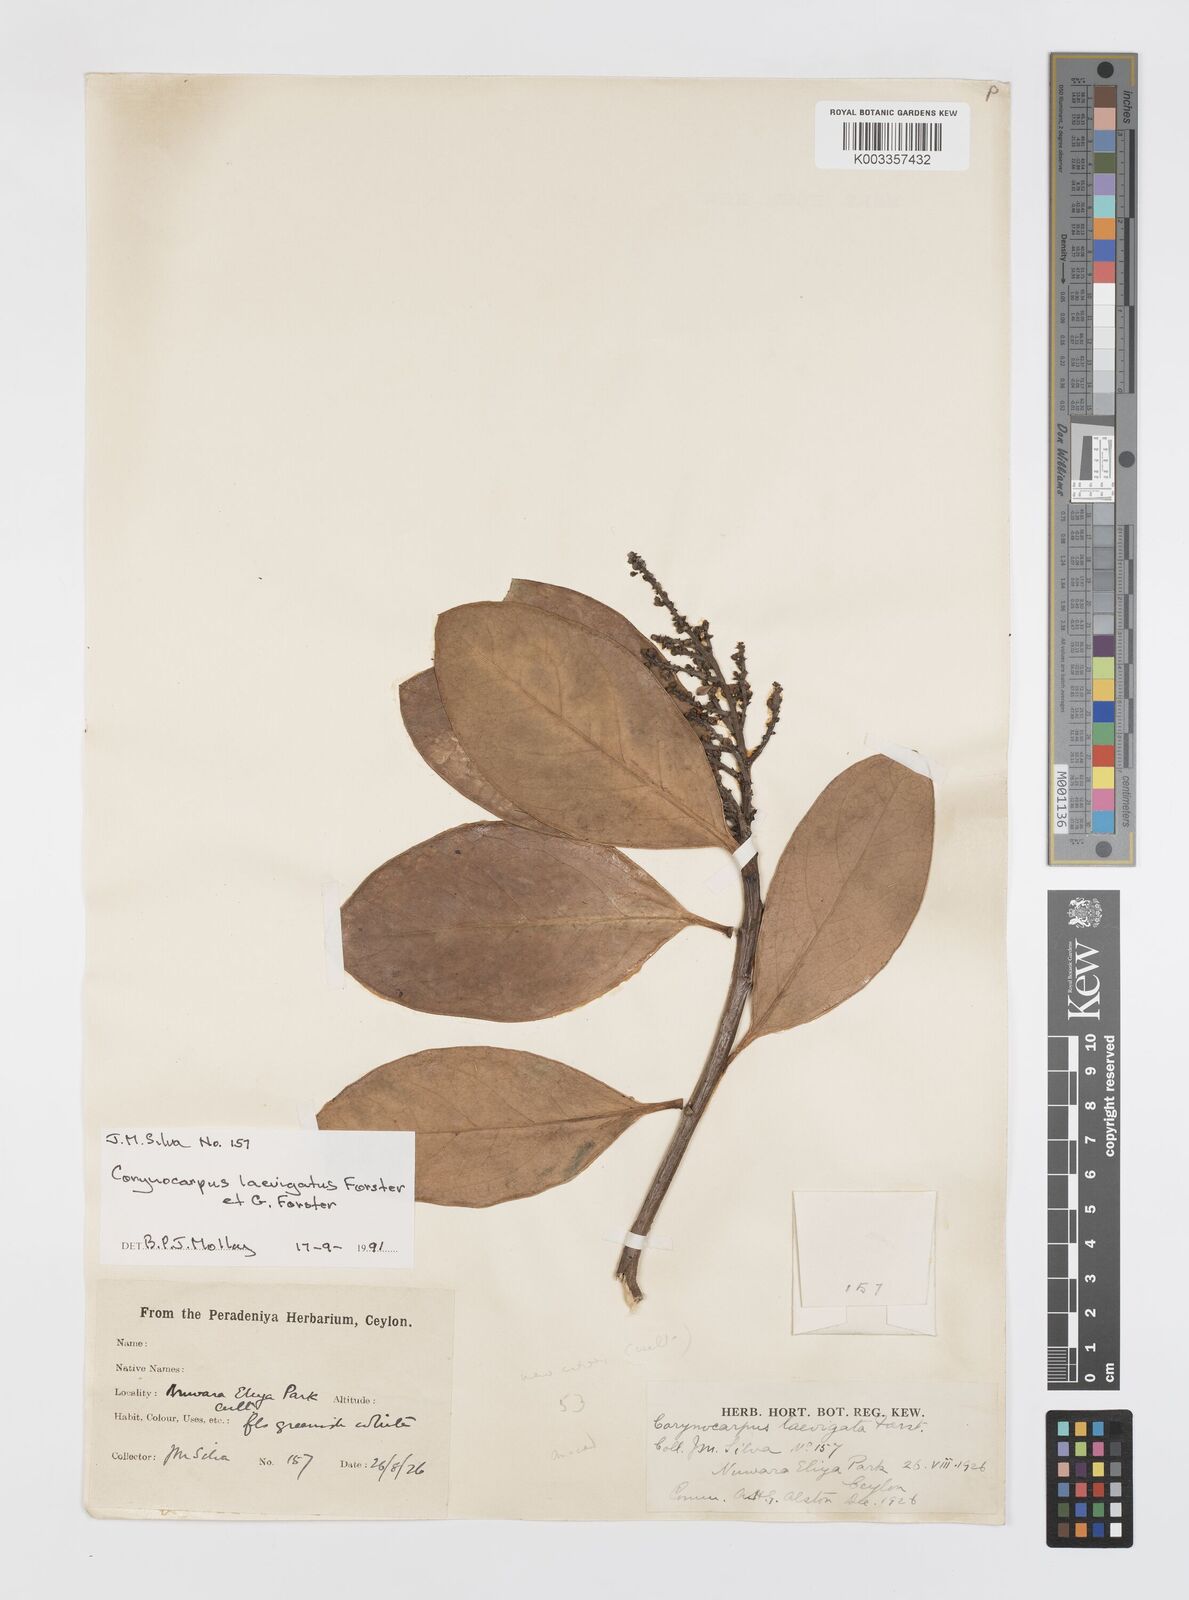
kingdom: Plantae
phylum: Tracheophyta
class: Magnoliopsida
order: Cucurbitales
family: Corynocarpaceae
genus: Corynocarpus
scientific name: Corynocarpus laevigatus
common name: New zealand laurel
